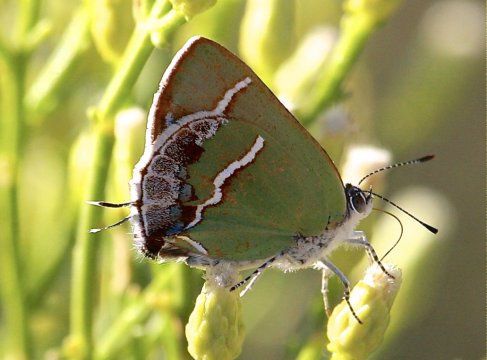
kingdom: Animalia
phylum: Arthropoda
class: Insecta
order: Lepidoptera
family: Lycaenidae
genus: Chlorostrymon
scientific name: Chlorostrymon simaethis
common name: Silver-banded Hairstreak
